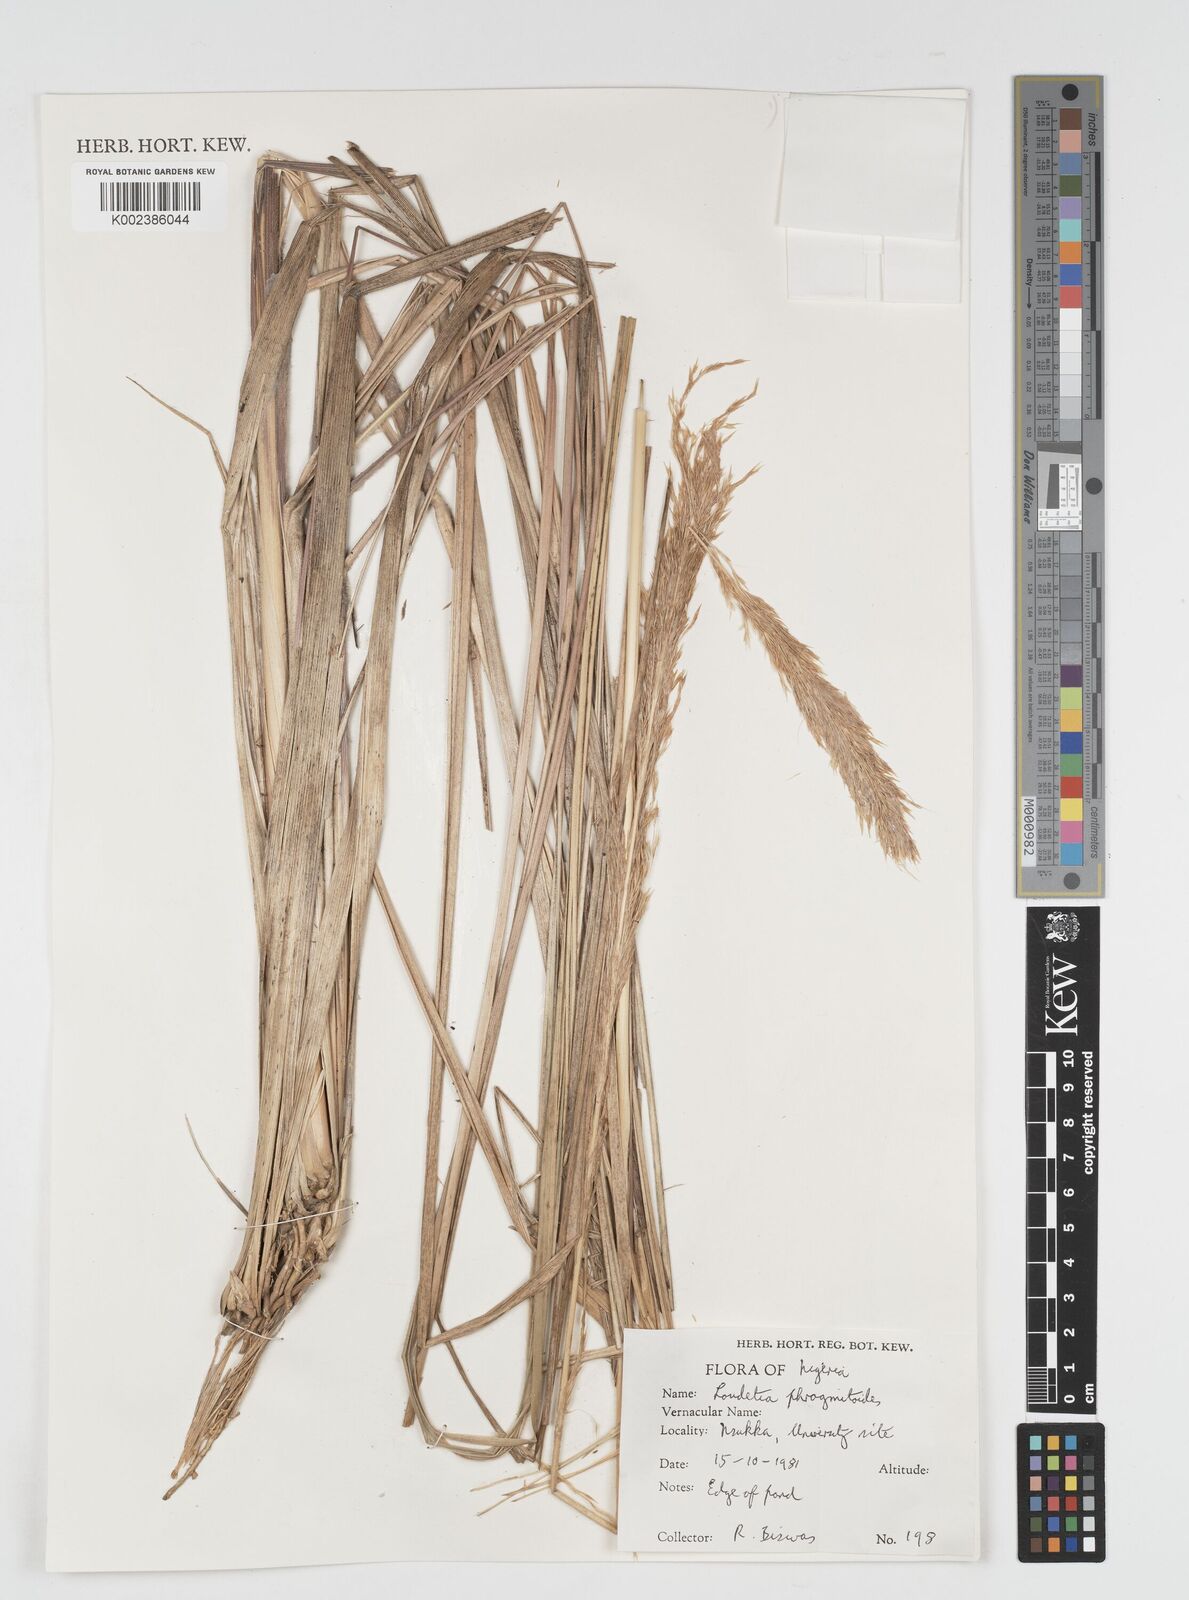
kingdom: Plantae
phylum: Tracheophyta
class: Liliopsida
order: Poales
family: Poaceae
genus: Loudetia
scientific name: Loudetia phragmitoides
